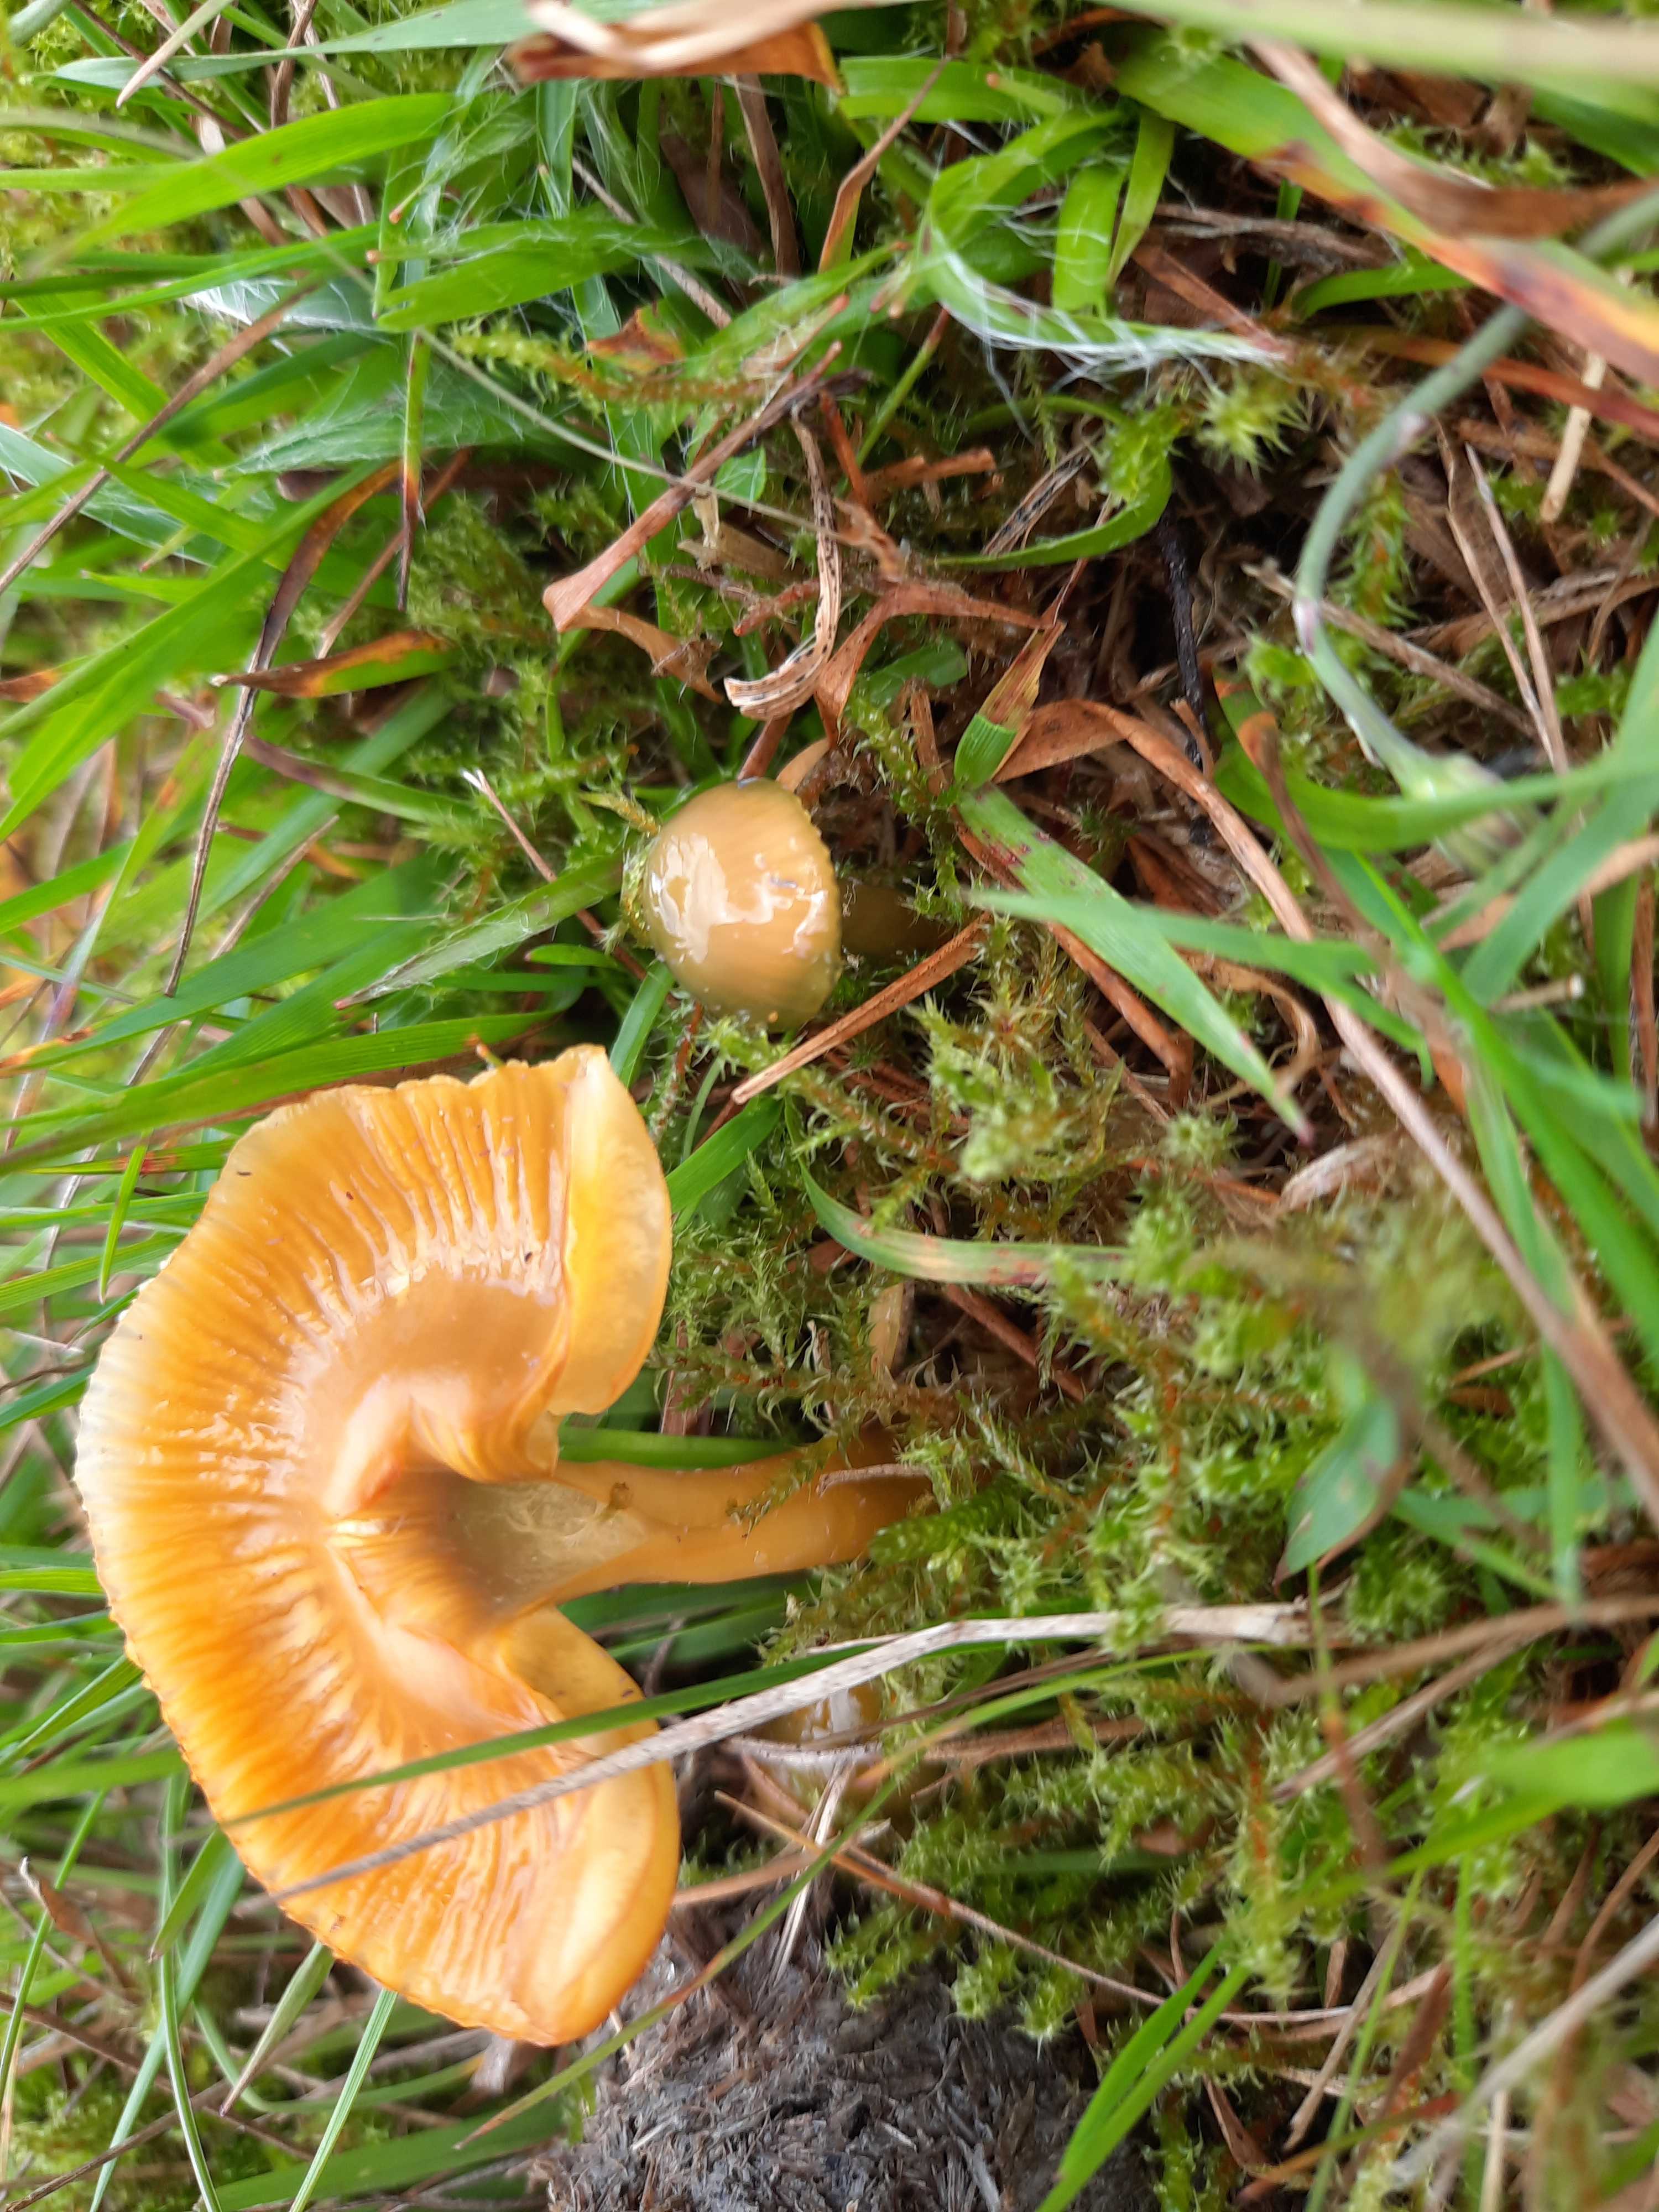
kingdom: Fungi
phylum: Basidiomycota
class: Agaricomycetes
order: Agaricales
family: Hygrophoraceae
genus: Gliophorus
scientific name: Gliophorus psittacinus
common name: papegøje-vokshat
